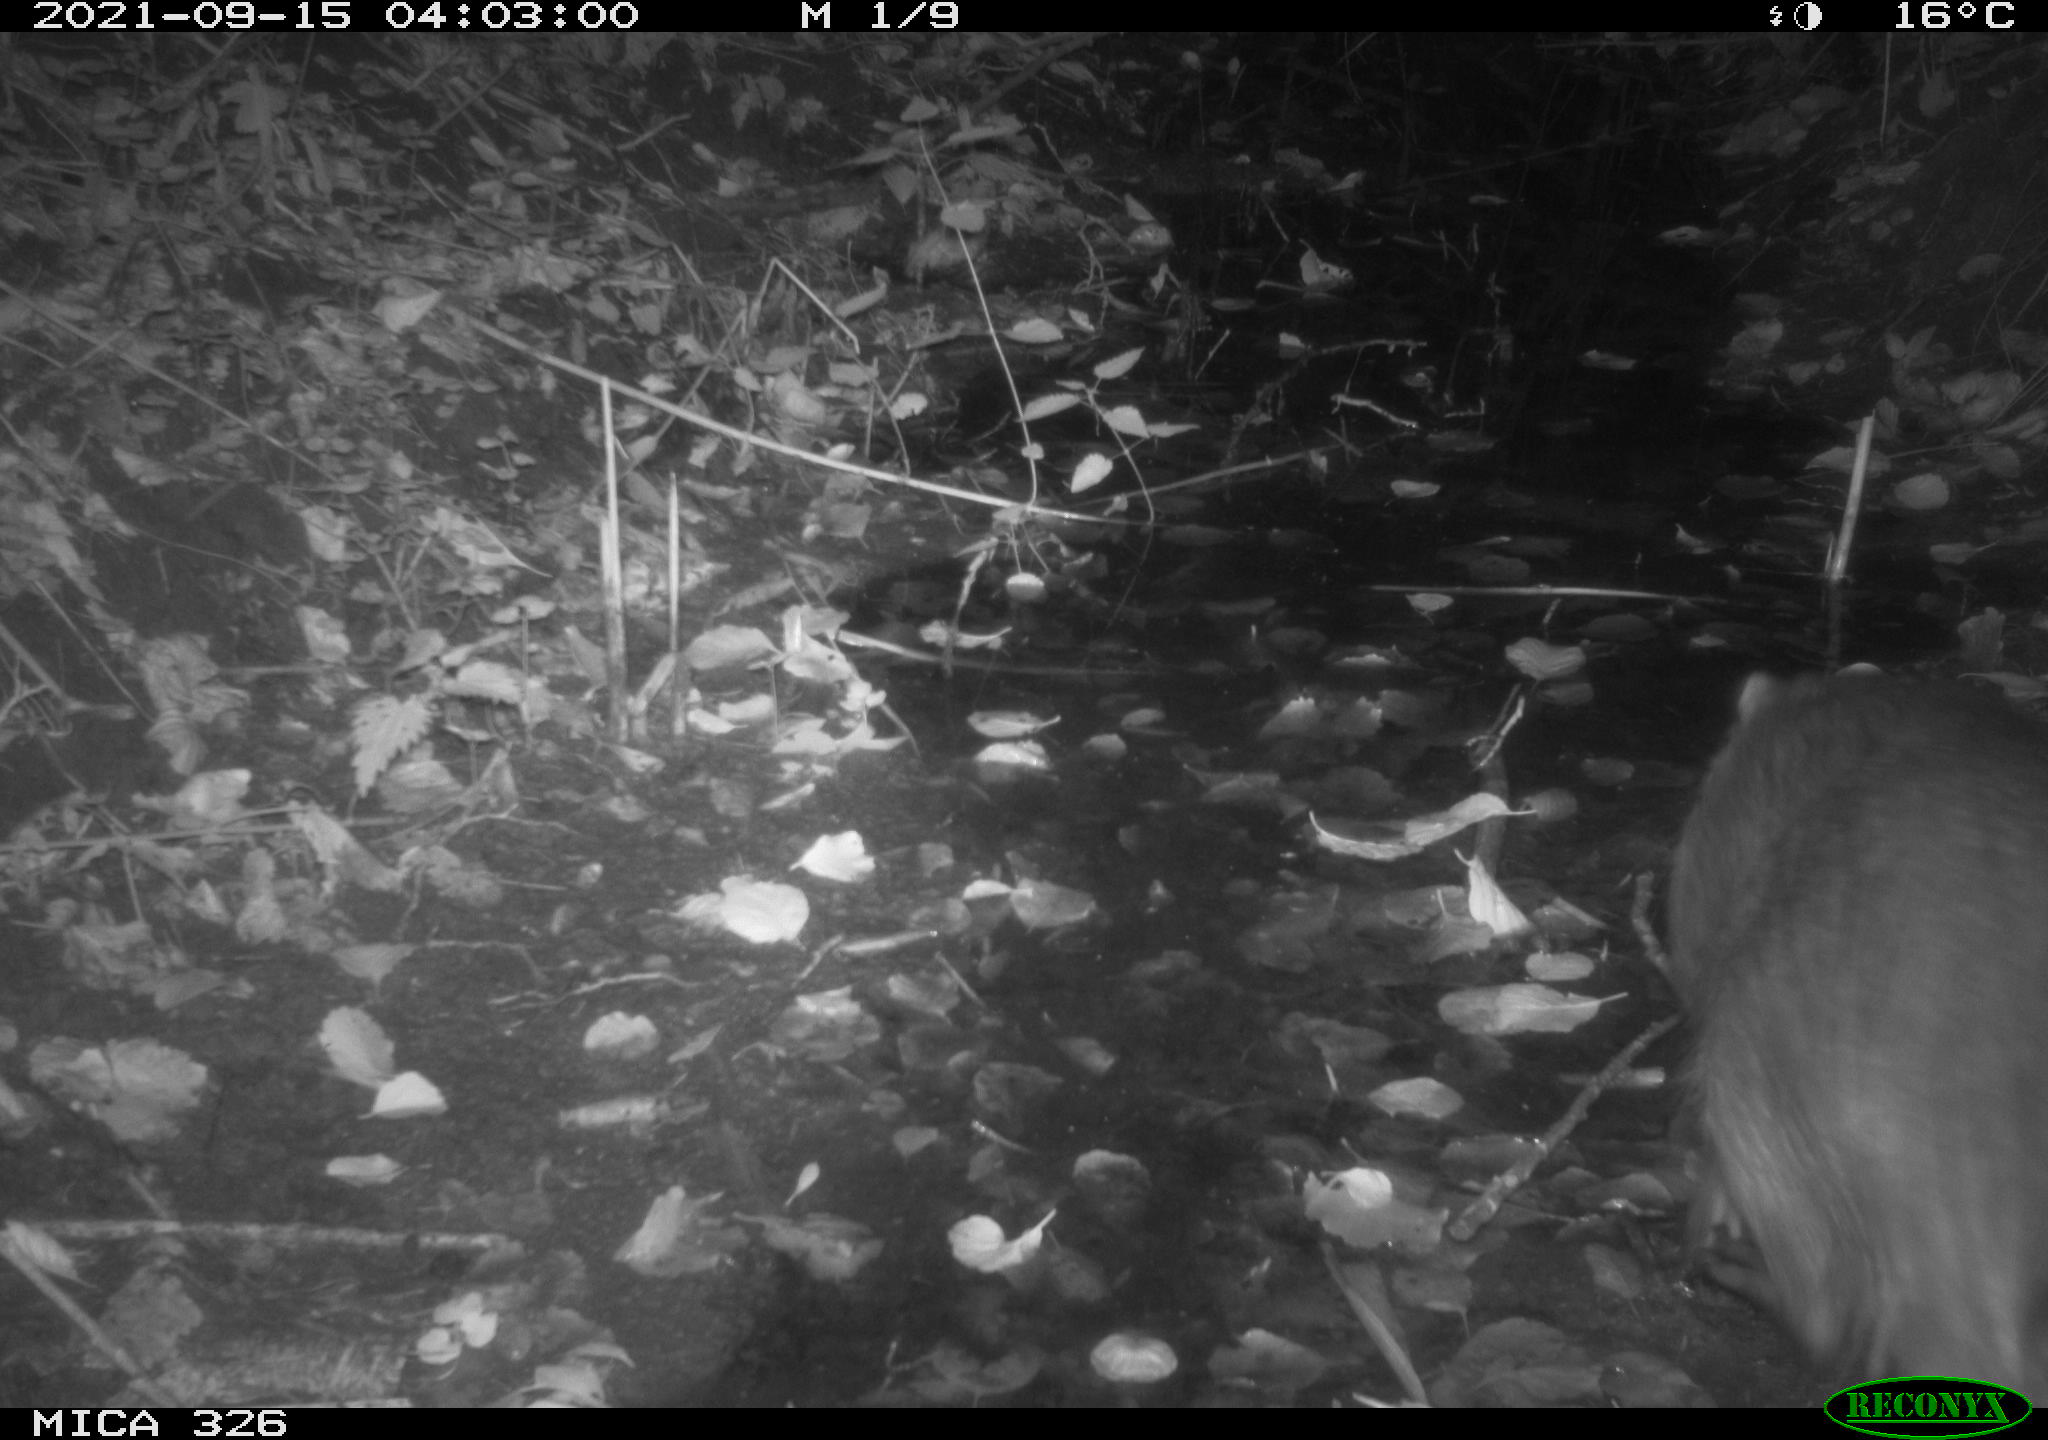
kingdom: Animalia
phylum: Chordata
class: Mammalia
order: Rodentia
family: Myocastoridae
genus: Myocastor
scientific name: Myocastor coypus
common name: Coypu
